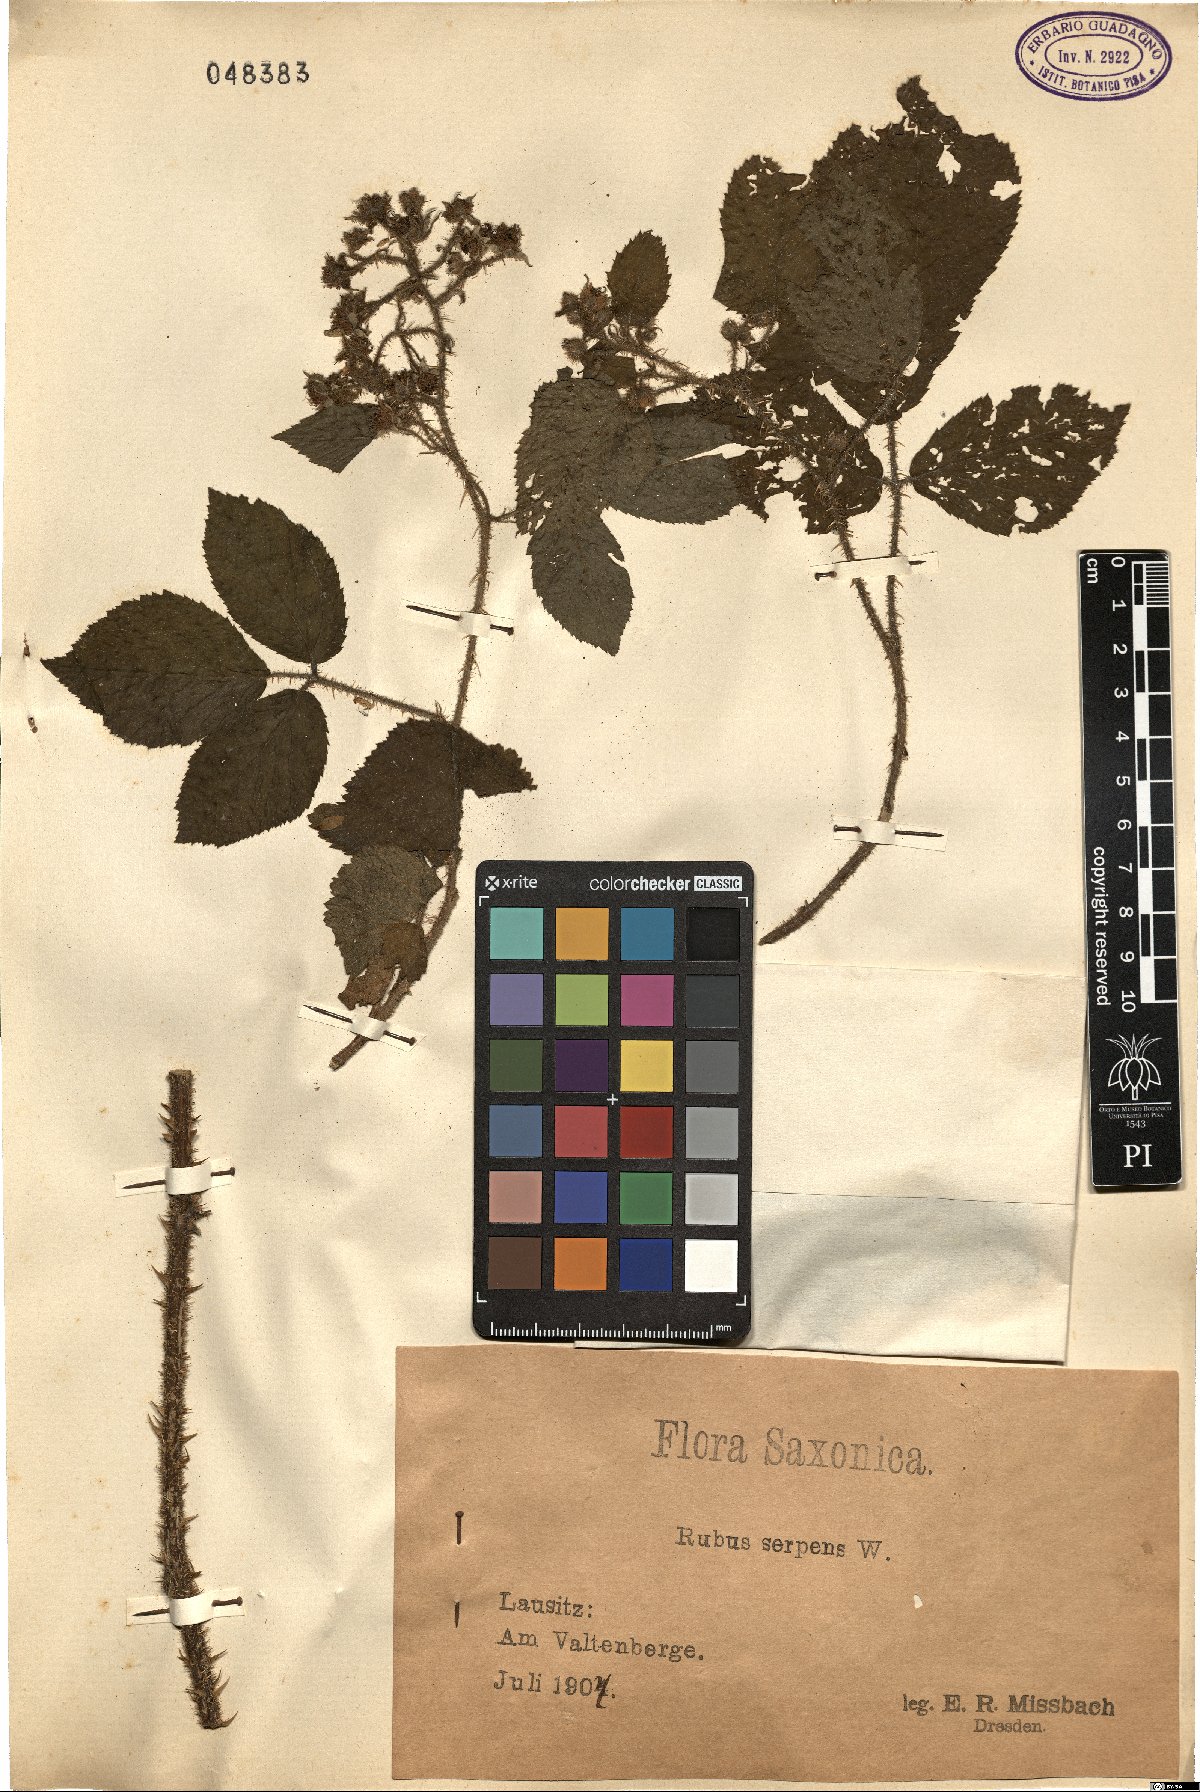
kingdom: Plantae
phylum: Tracheophyta
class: Magnoliopsida
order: Rosales
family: Rosaceae
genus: Rubus
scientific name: Rubus serpens
